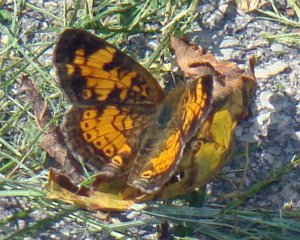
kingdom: Animalia
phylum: Arthropoda
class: Insecta
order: Lepidoptera
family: Nymphalidae
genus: Phyciodes
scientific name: Phyciodes tharos
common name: Pearl Crescent
